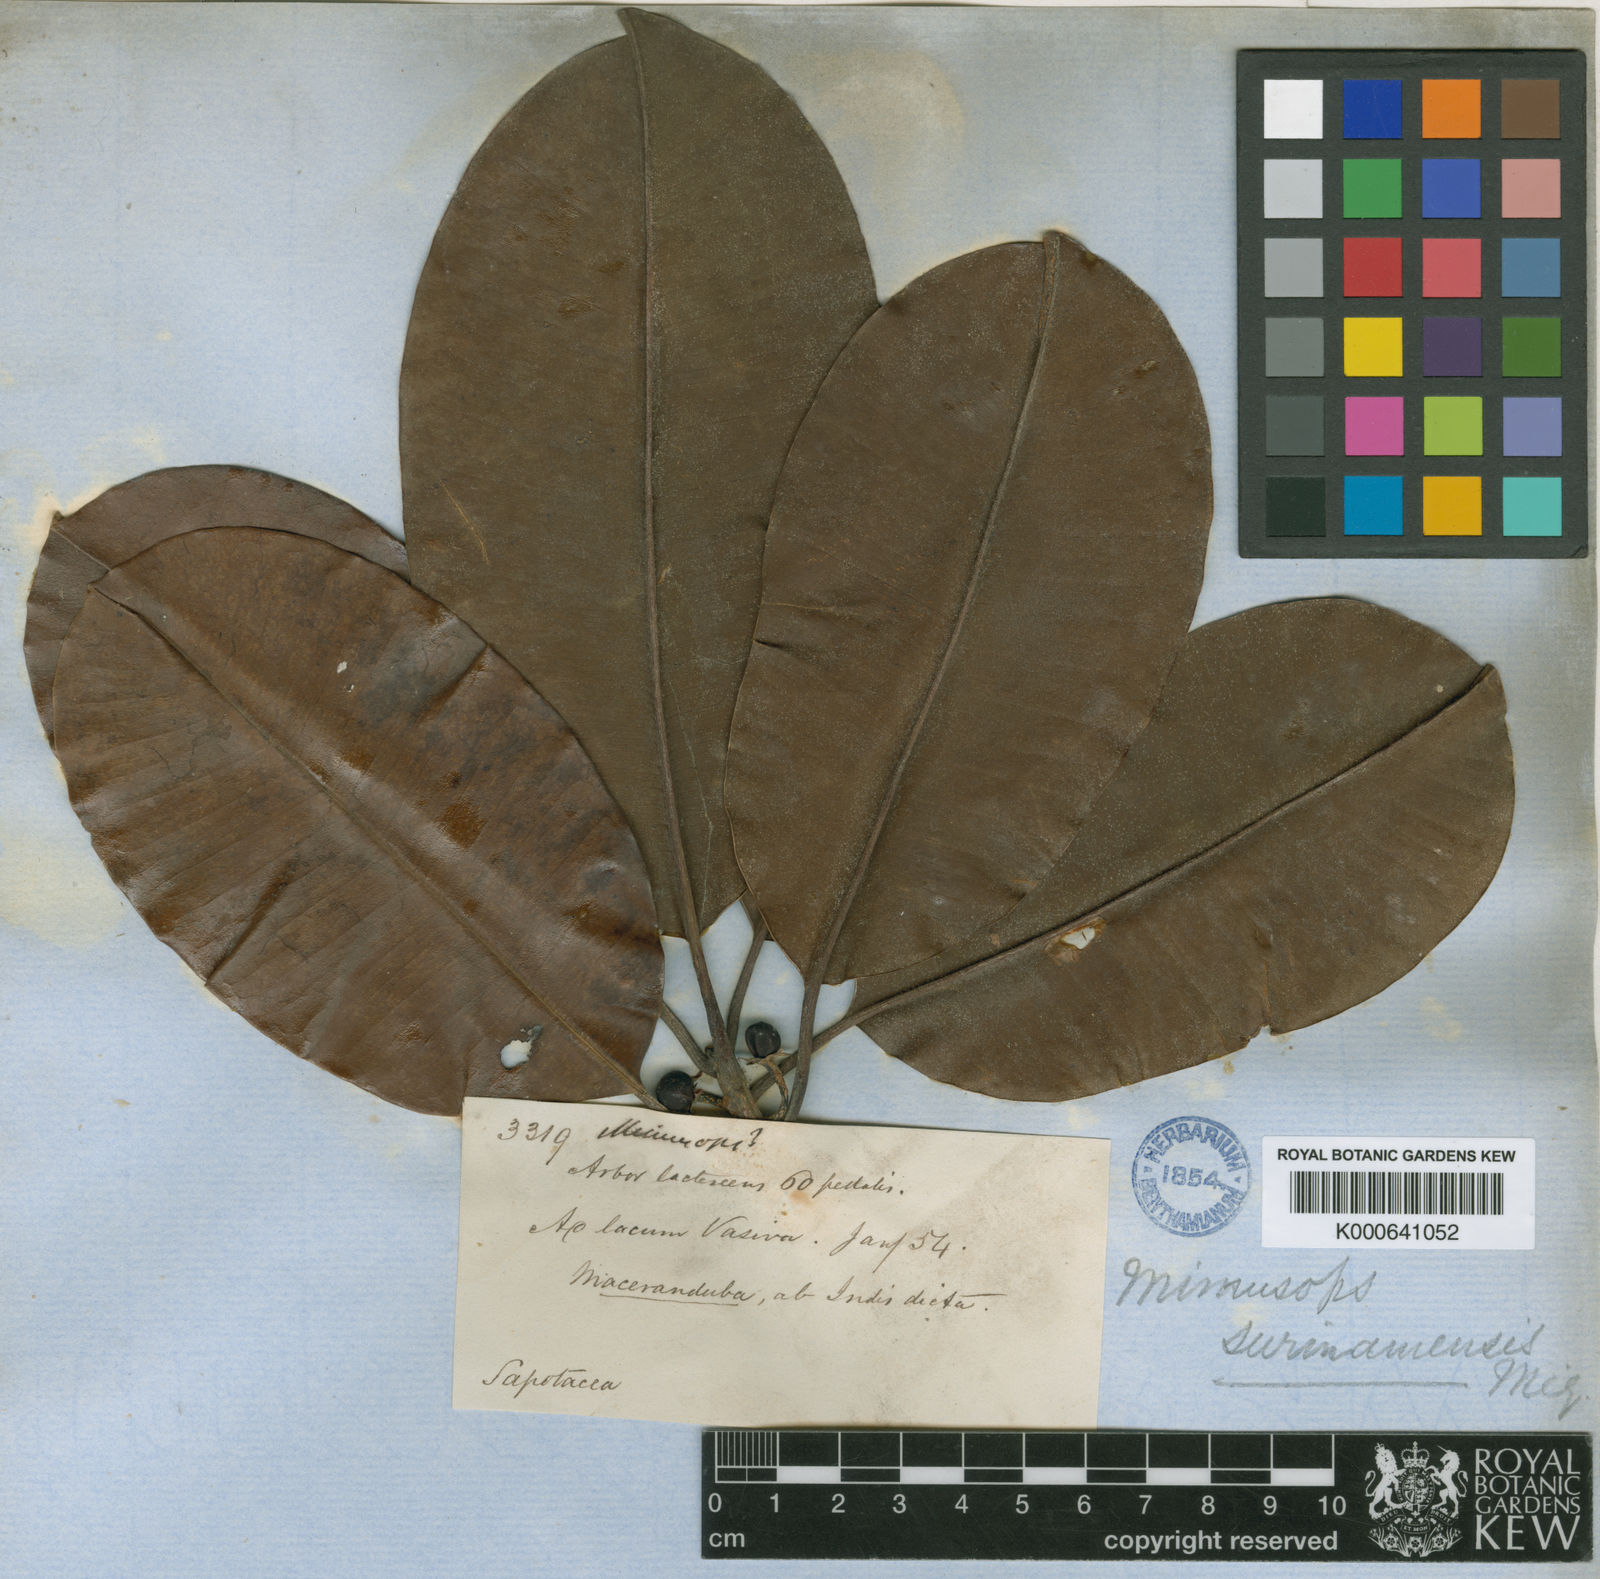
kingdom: Plantae
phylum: Tracheophyta
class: Magnoliopsida
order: Ericales
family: Sapotaceae
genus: Manilkara
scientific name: Manilkara bidentata
